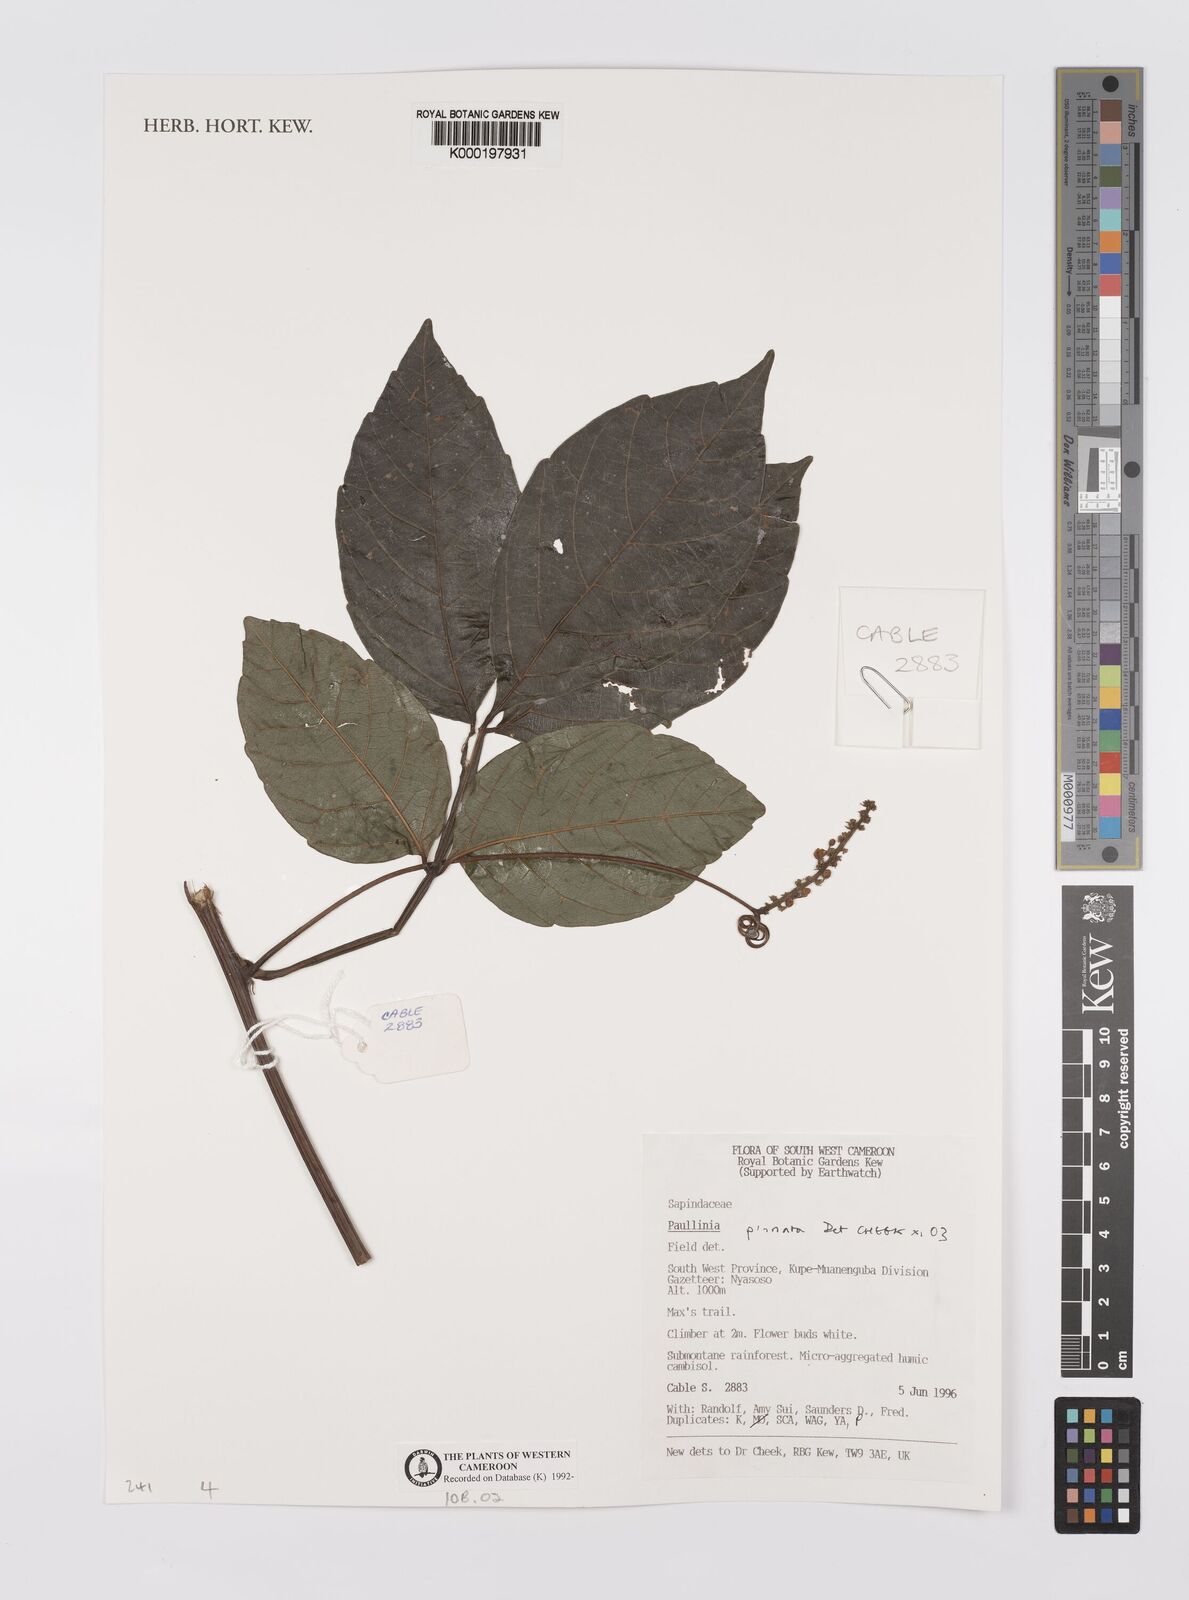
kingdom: Plantae
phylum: Tracheophyta
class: Magnoliopsida
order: Sapindales
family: Sapindaceae
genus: Paullinia
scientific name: Paullinia pinnata
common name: Barbasco
